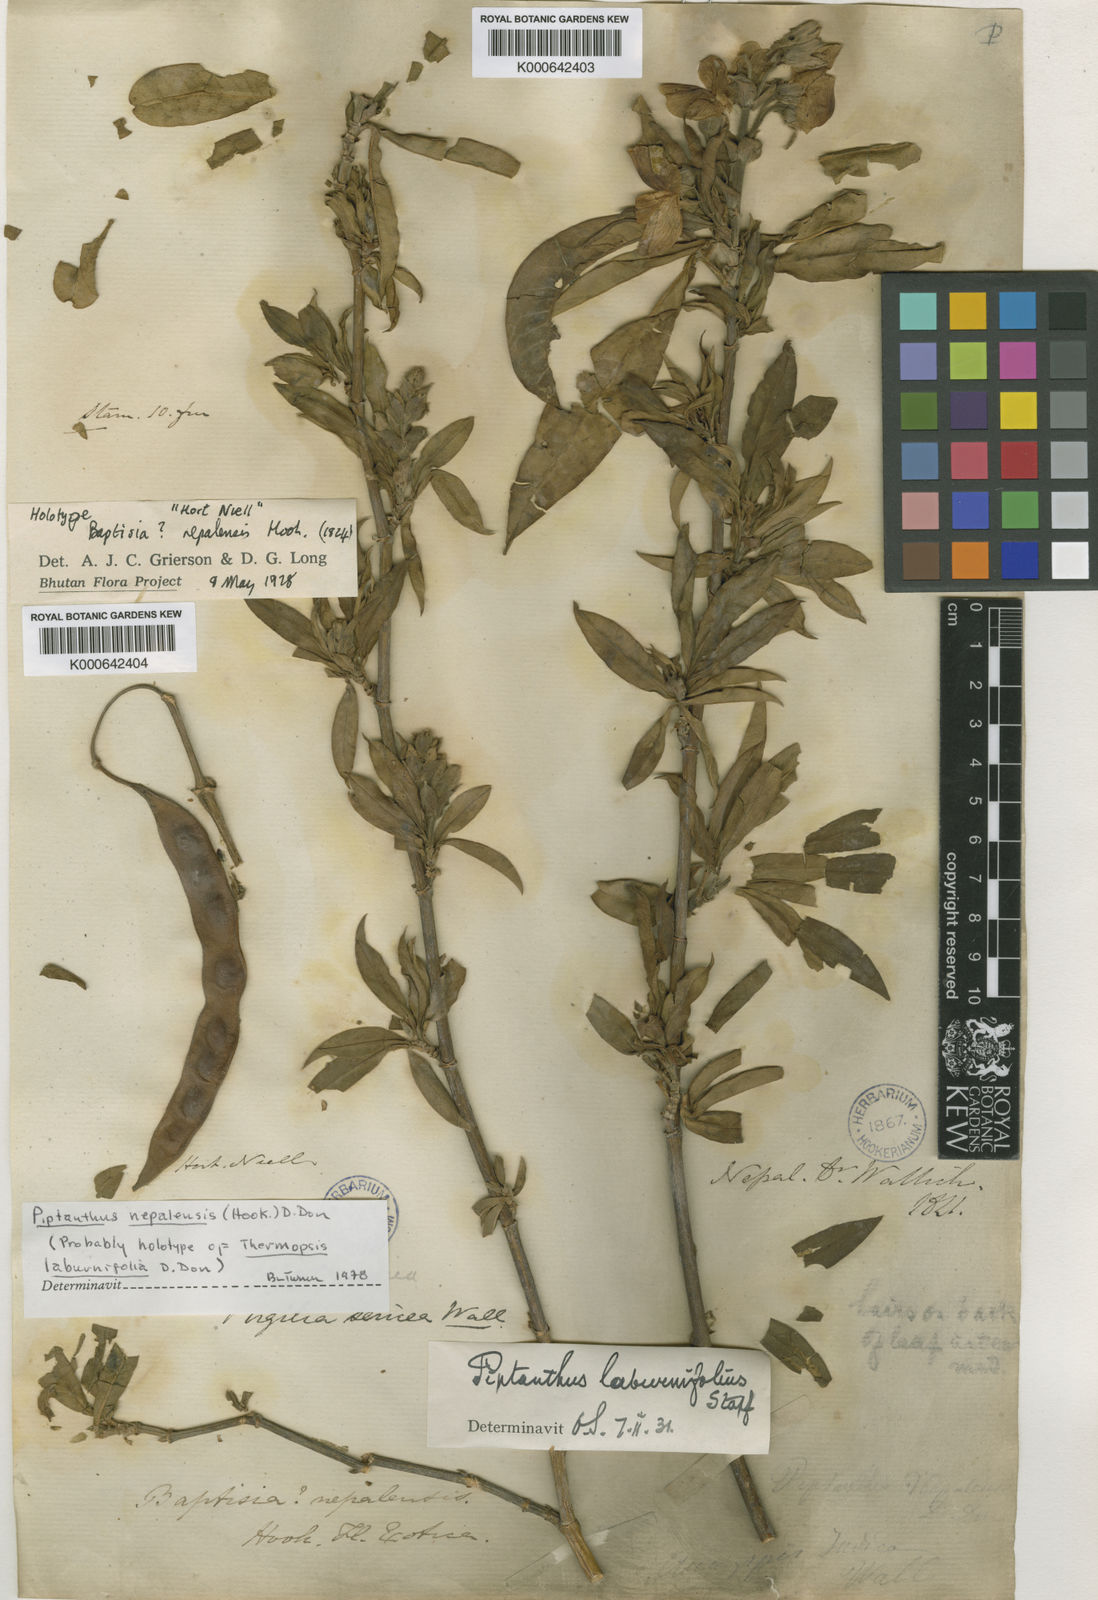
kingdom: Plantae
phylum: Tracheophyta
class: Magnoliopsida
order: Fabales
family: Fabaceae
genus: Piptanthus
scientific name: Piptanthus
